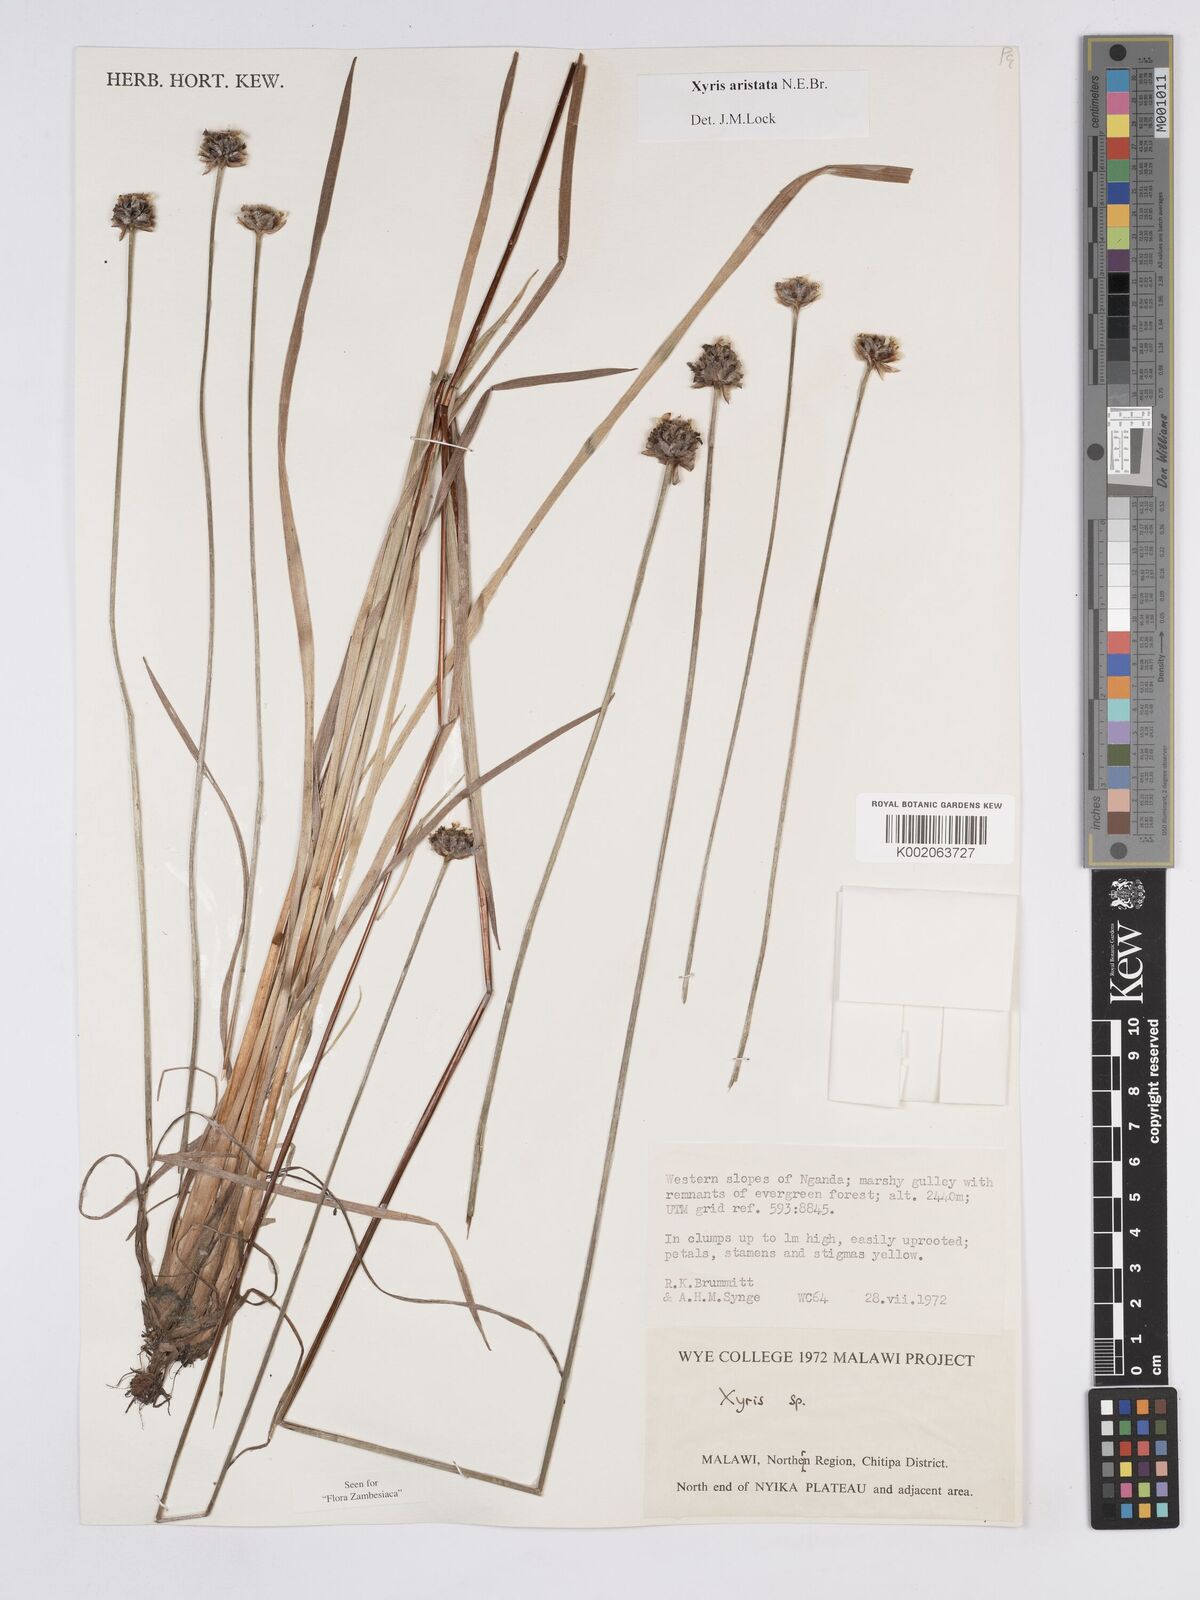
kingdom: Plantae
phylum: Tracheophyta
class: Liliopsida
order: Poales
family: Xyridaceae
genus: Xyris
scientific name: Xyris aristata
